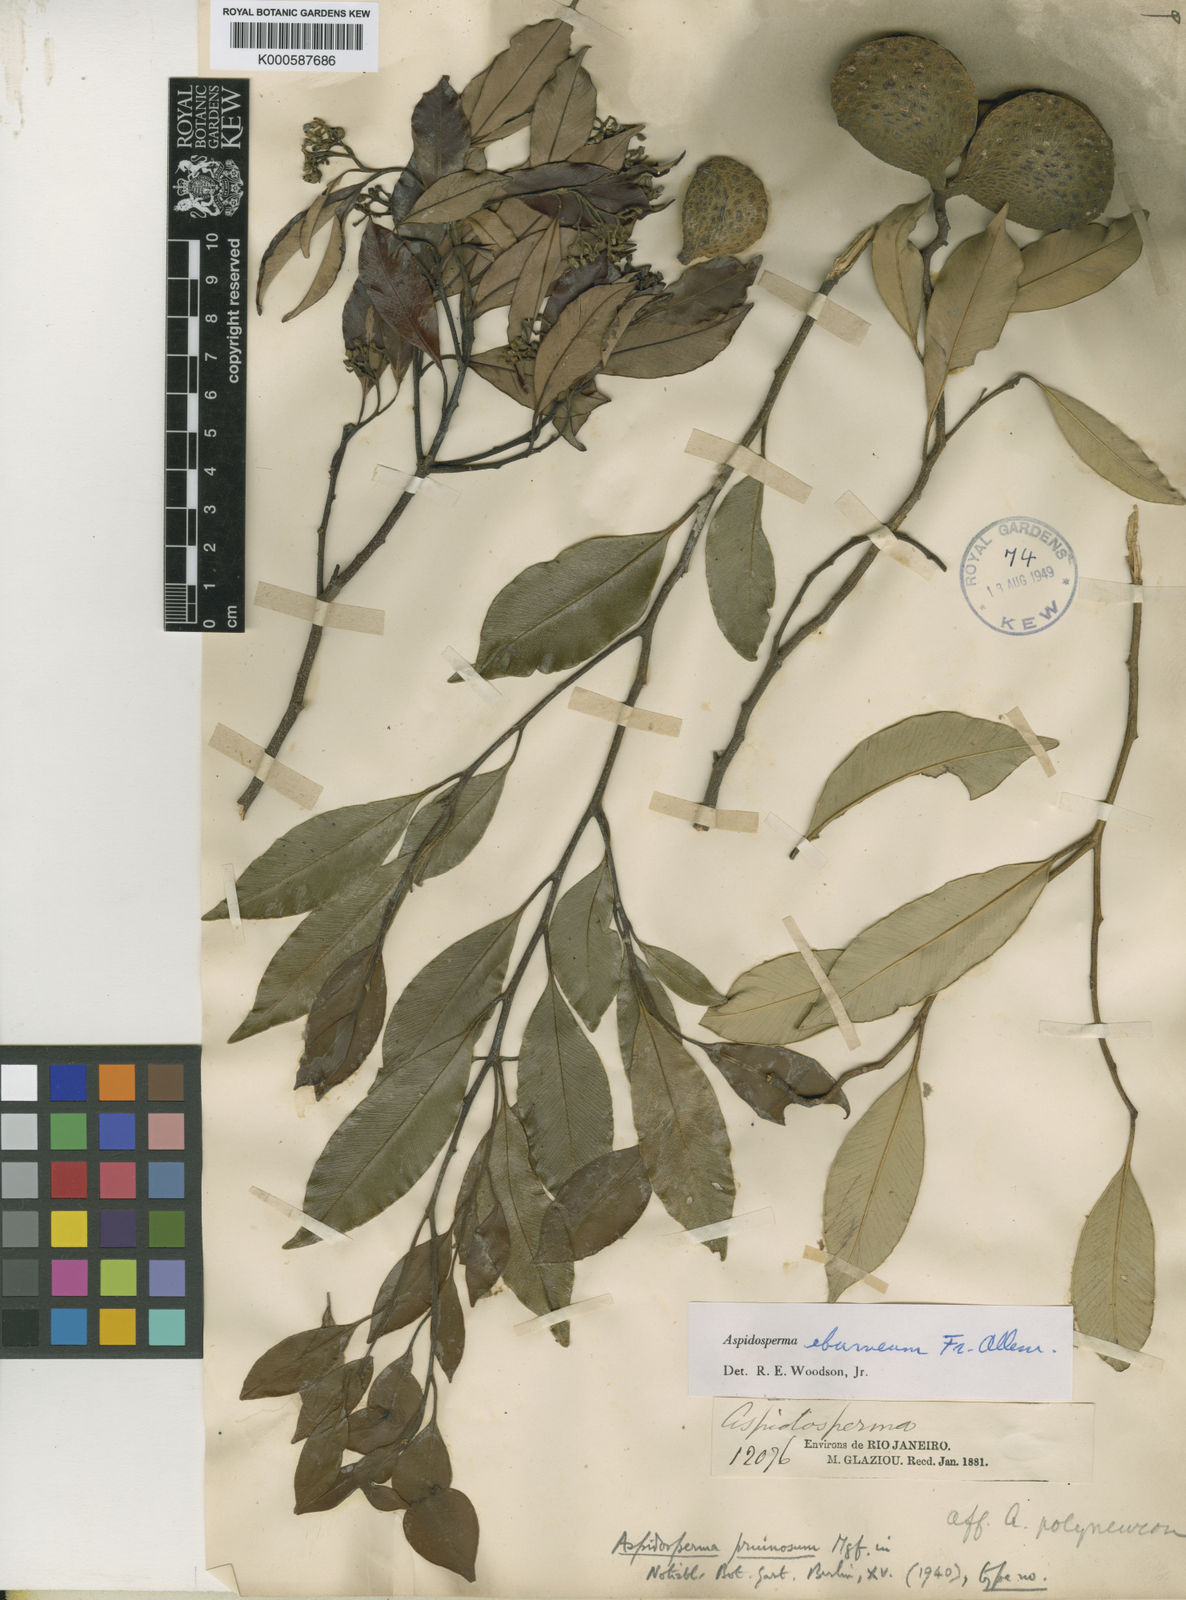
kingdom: Plantae
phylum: Tracheophyta
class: Magnoliopsida
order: Gentianales
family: Apocynaceae
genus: Aspidosperma
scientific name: Aspidosperma
